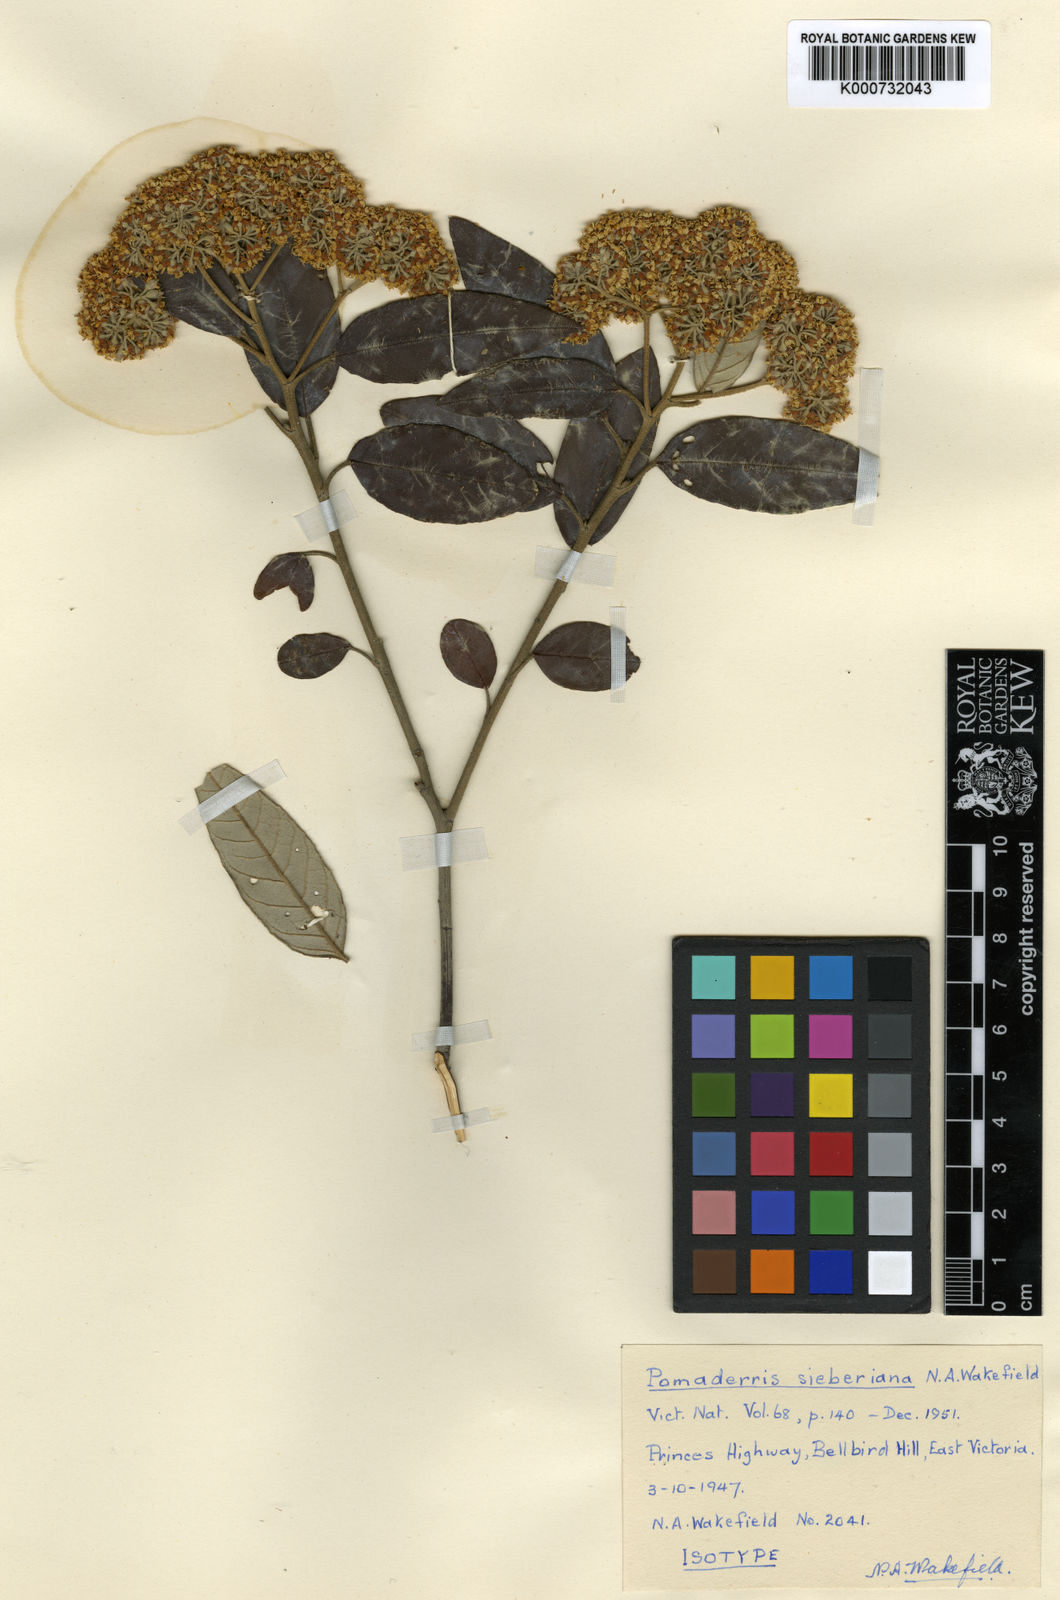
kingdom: Plantae
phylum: Tracheophyta
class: Magnoliopsida
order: Rosales
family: Rhamnaceae
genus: Pomaderris
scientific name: Pomaderris
